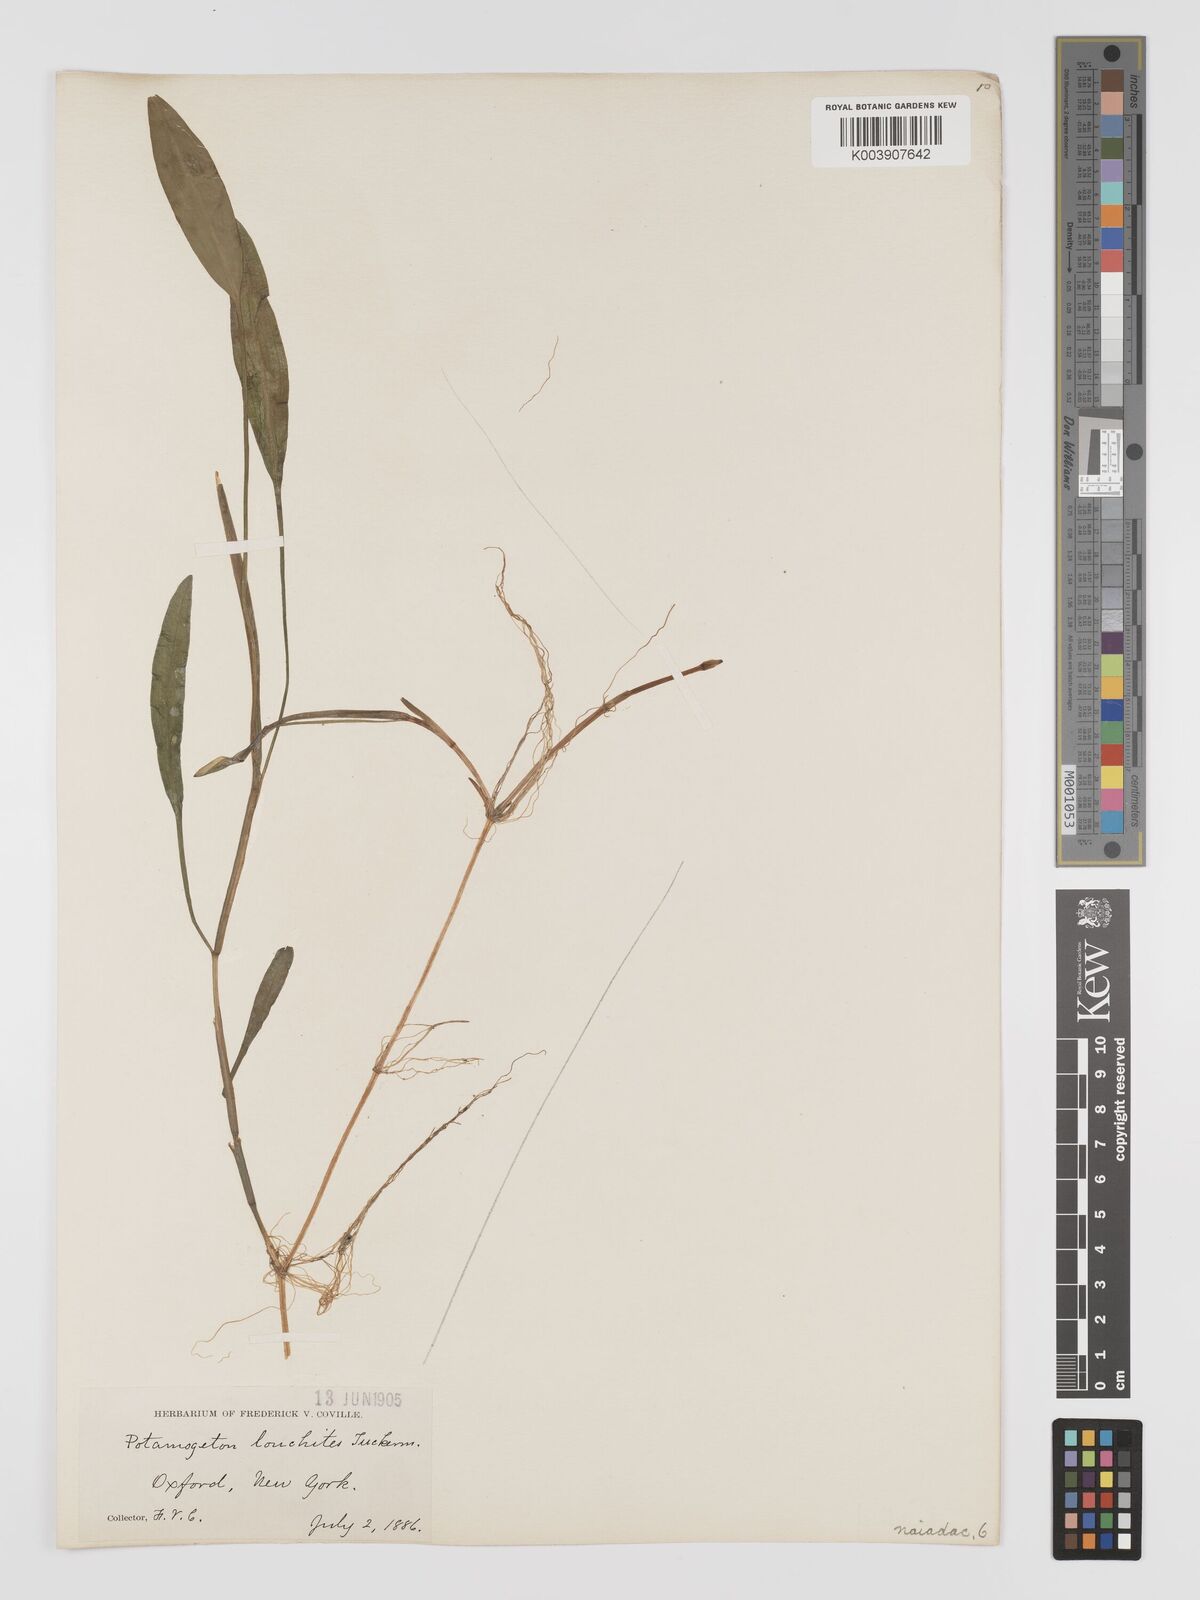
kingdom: Plantae
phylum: Tracheophyta
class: Liliopsida
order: Alismatales
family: Potamogetonaceae
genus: Potamogeton
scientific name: Potamogeton nodosus
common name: Loddon pondweed
